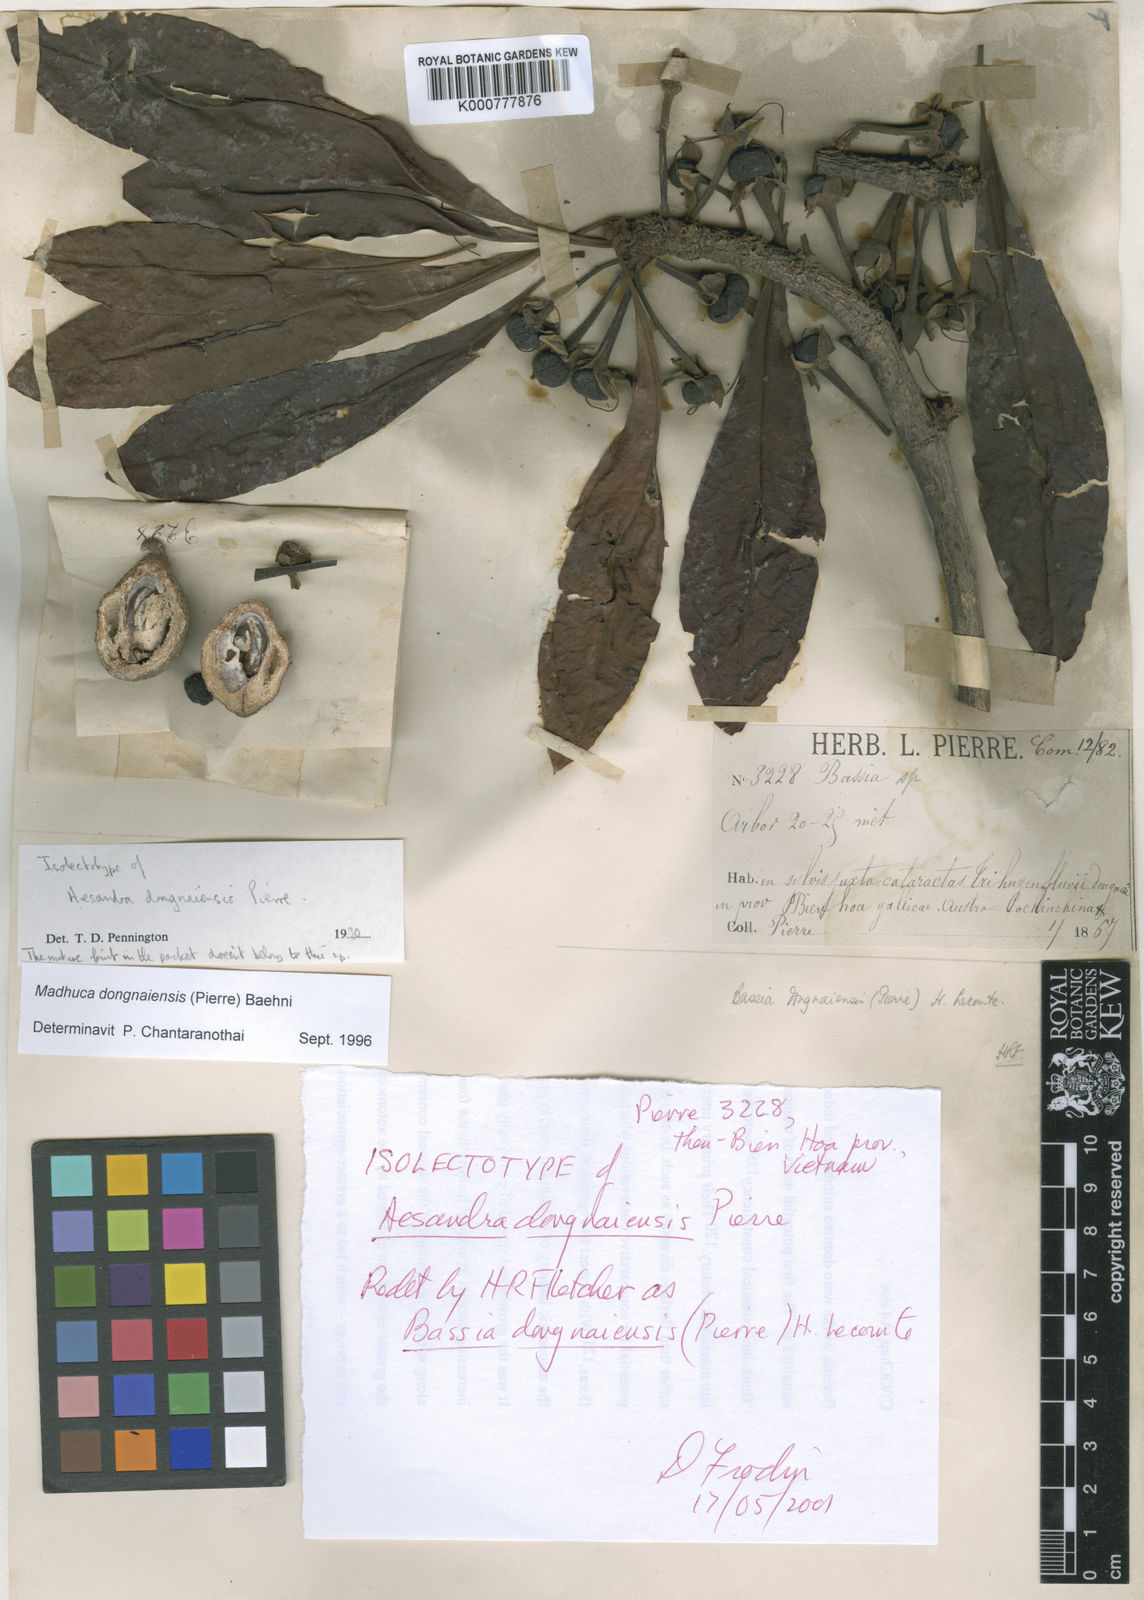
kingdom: Plantae
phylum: Tracheophyta
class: Magnoliopsida
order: Ericales
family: Sapotaceae
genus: Madhuca
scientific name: Madhuca dongnaiensis
